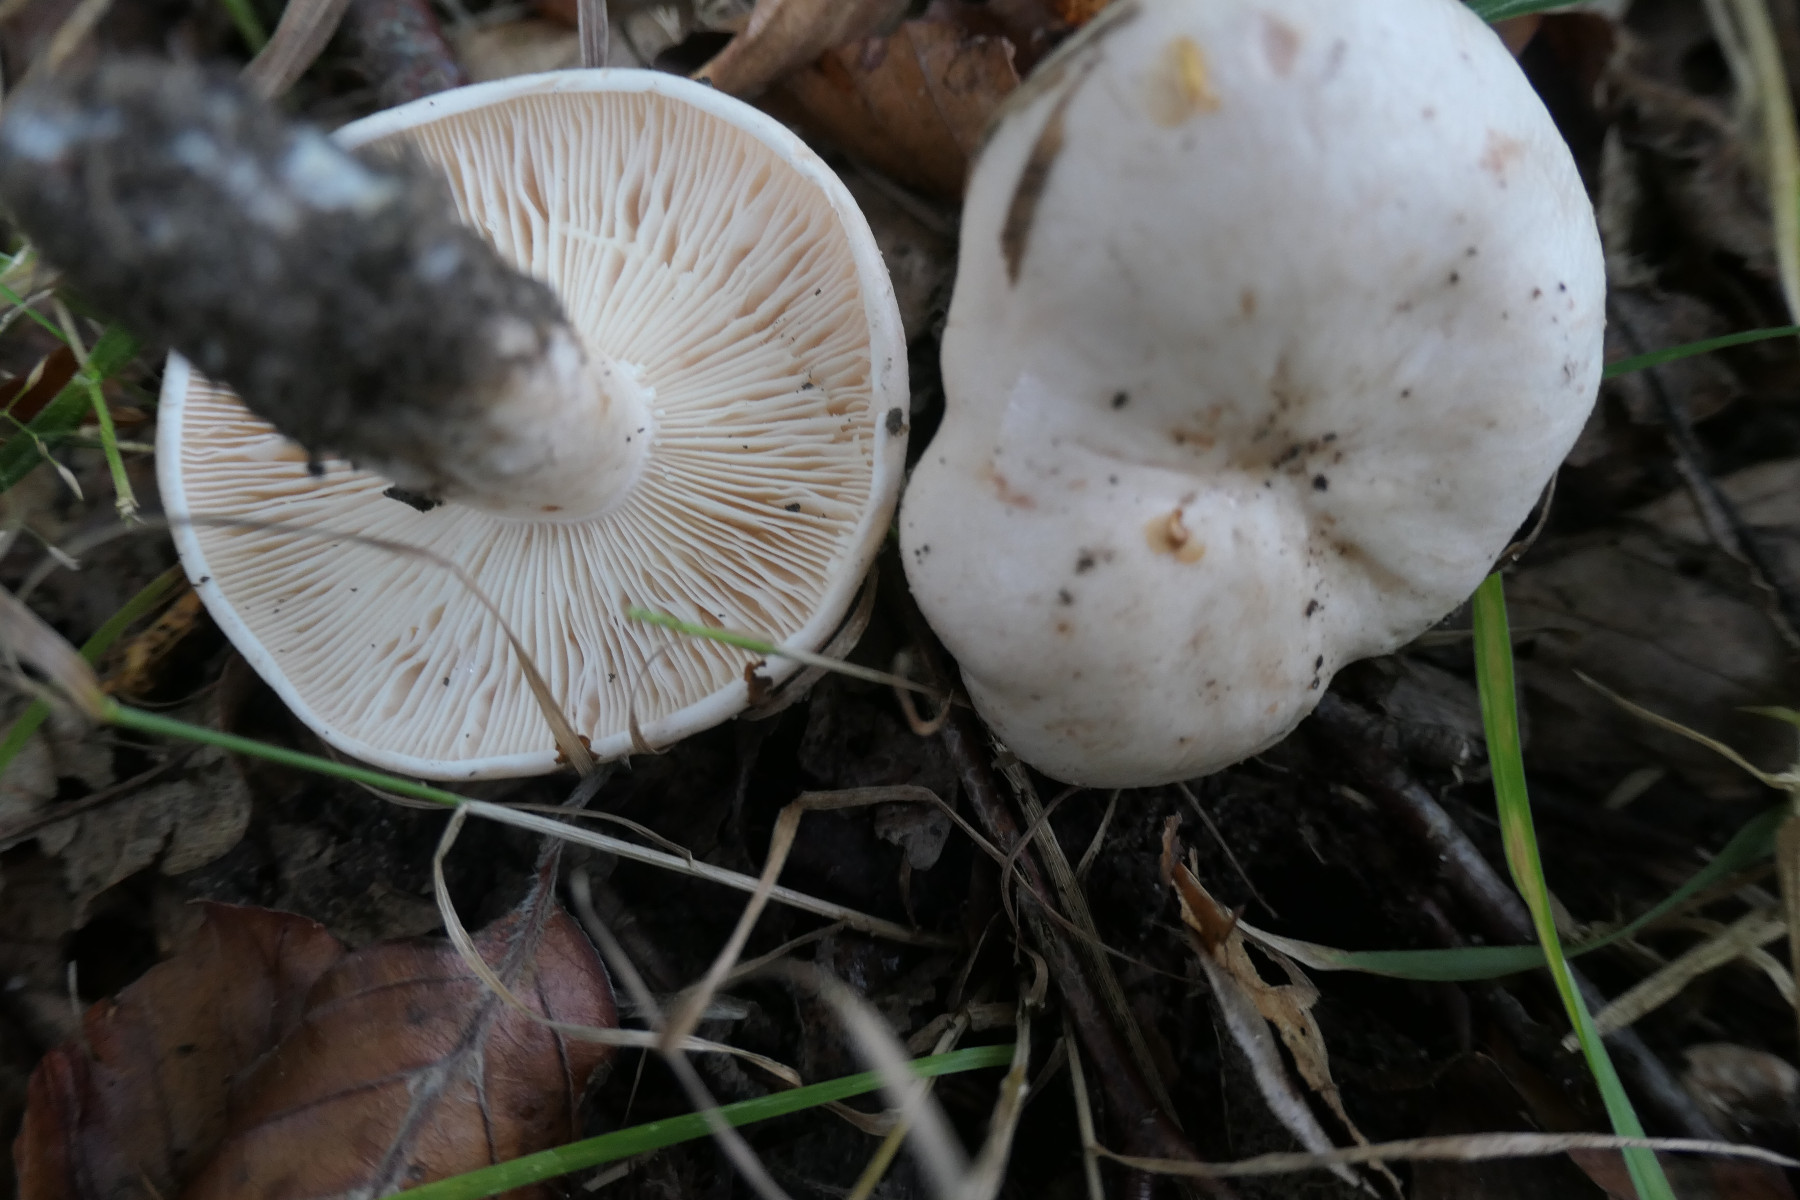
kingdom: Fungi
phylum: Basidiomycota
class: Agaricomycetes
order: Russulales
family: Russulaceae
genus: Lactarius
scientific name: Lactarius pallidus
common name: bleg mælkehat
